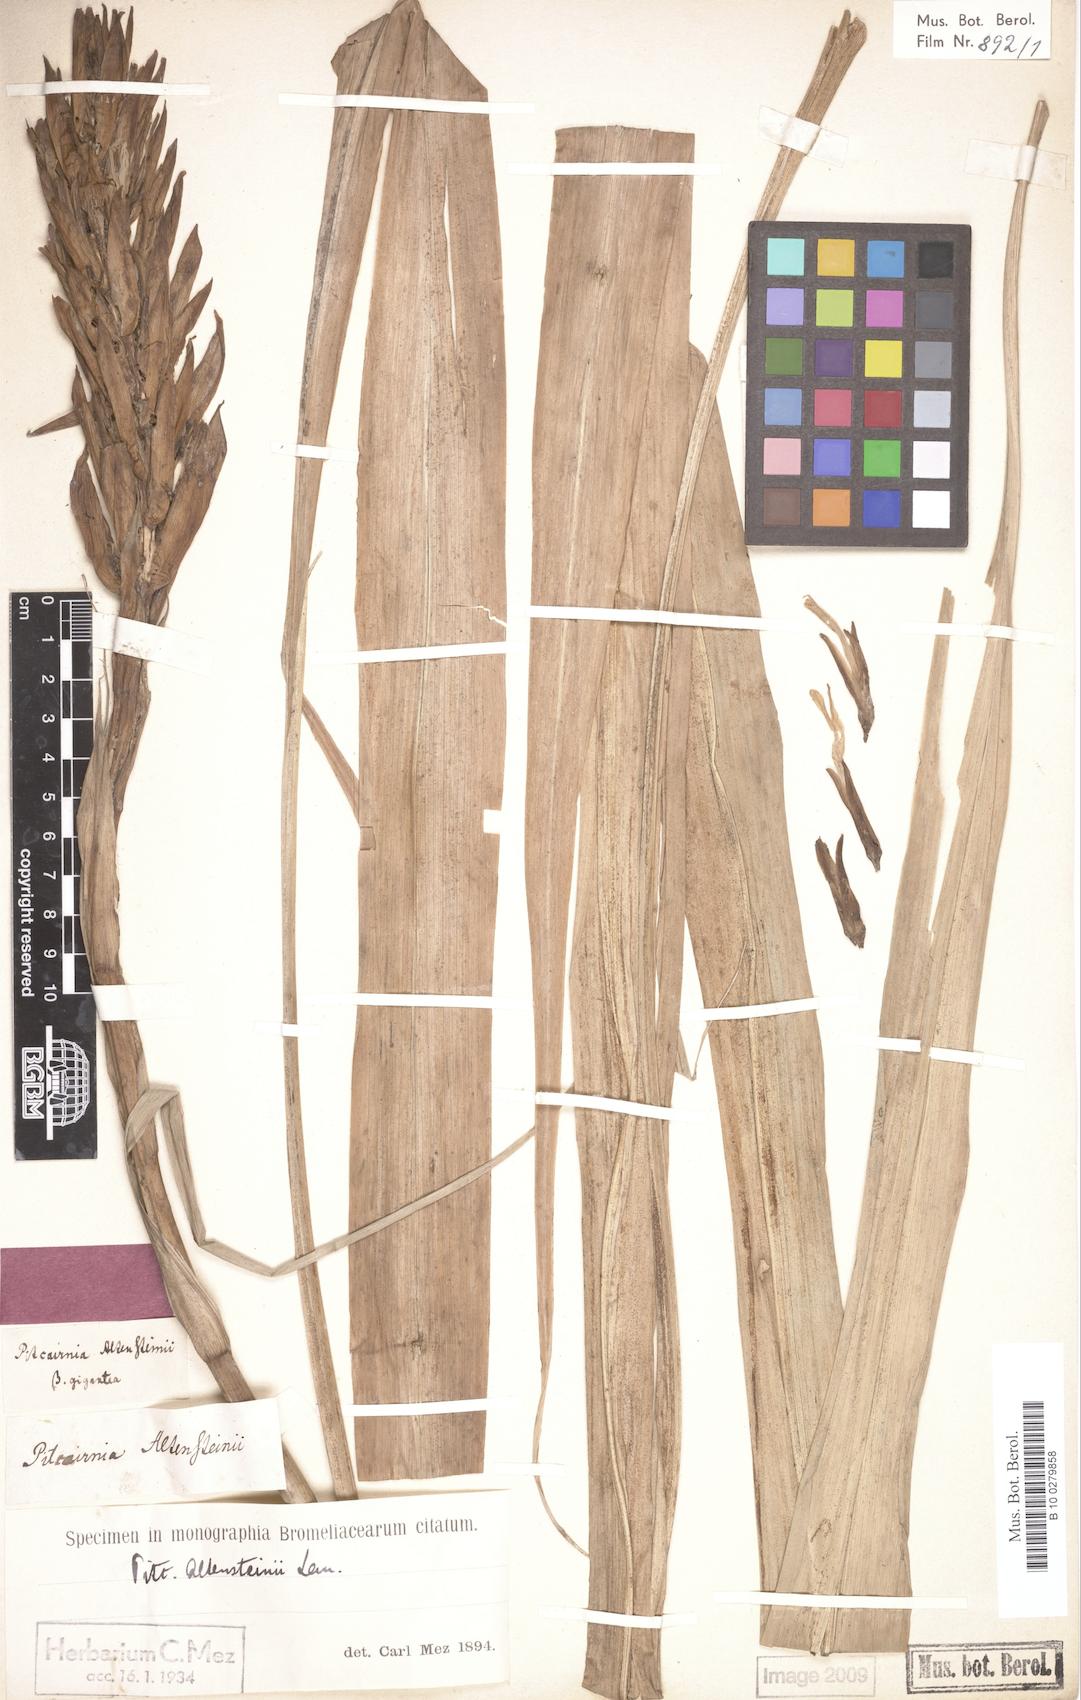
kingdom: Plantae
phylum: Tracheophyta
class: Liliopsida
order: Poales
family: Bromeliaceae
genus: Pitcairnia
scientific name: Pitcairnia altensteinii
